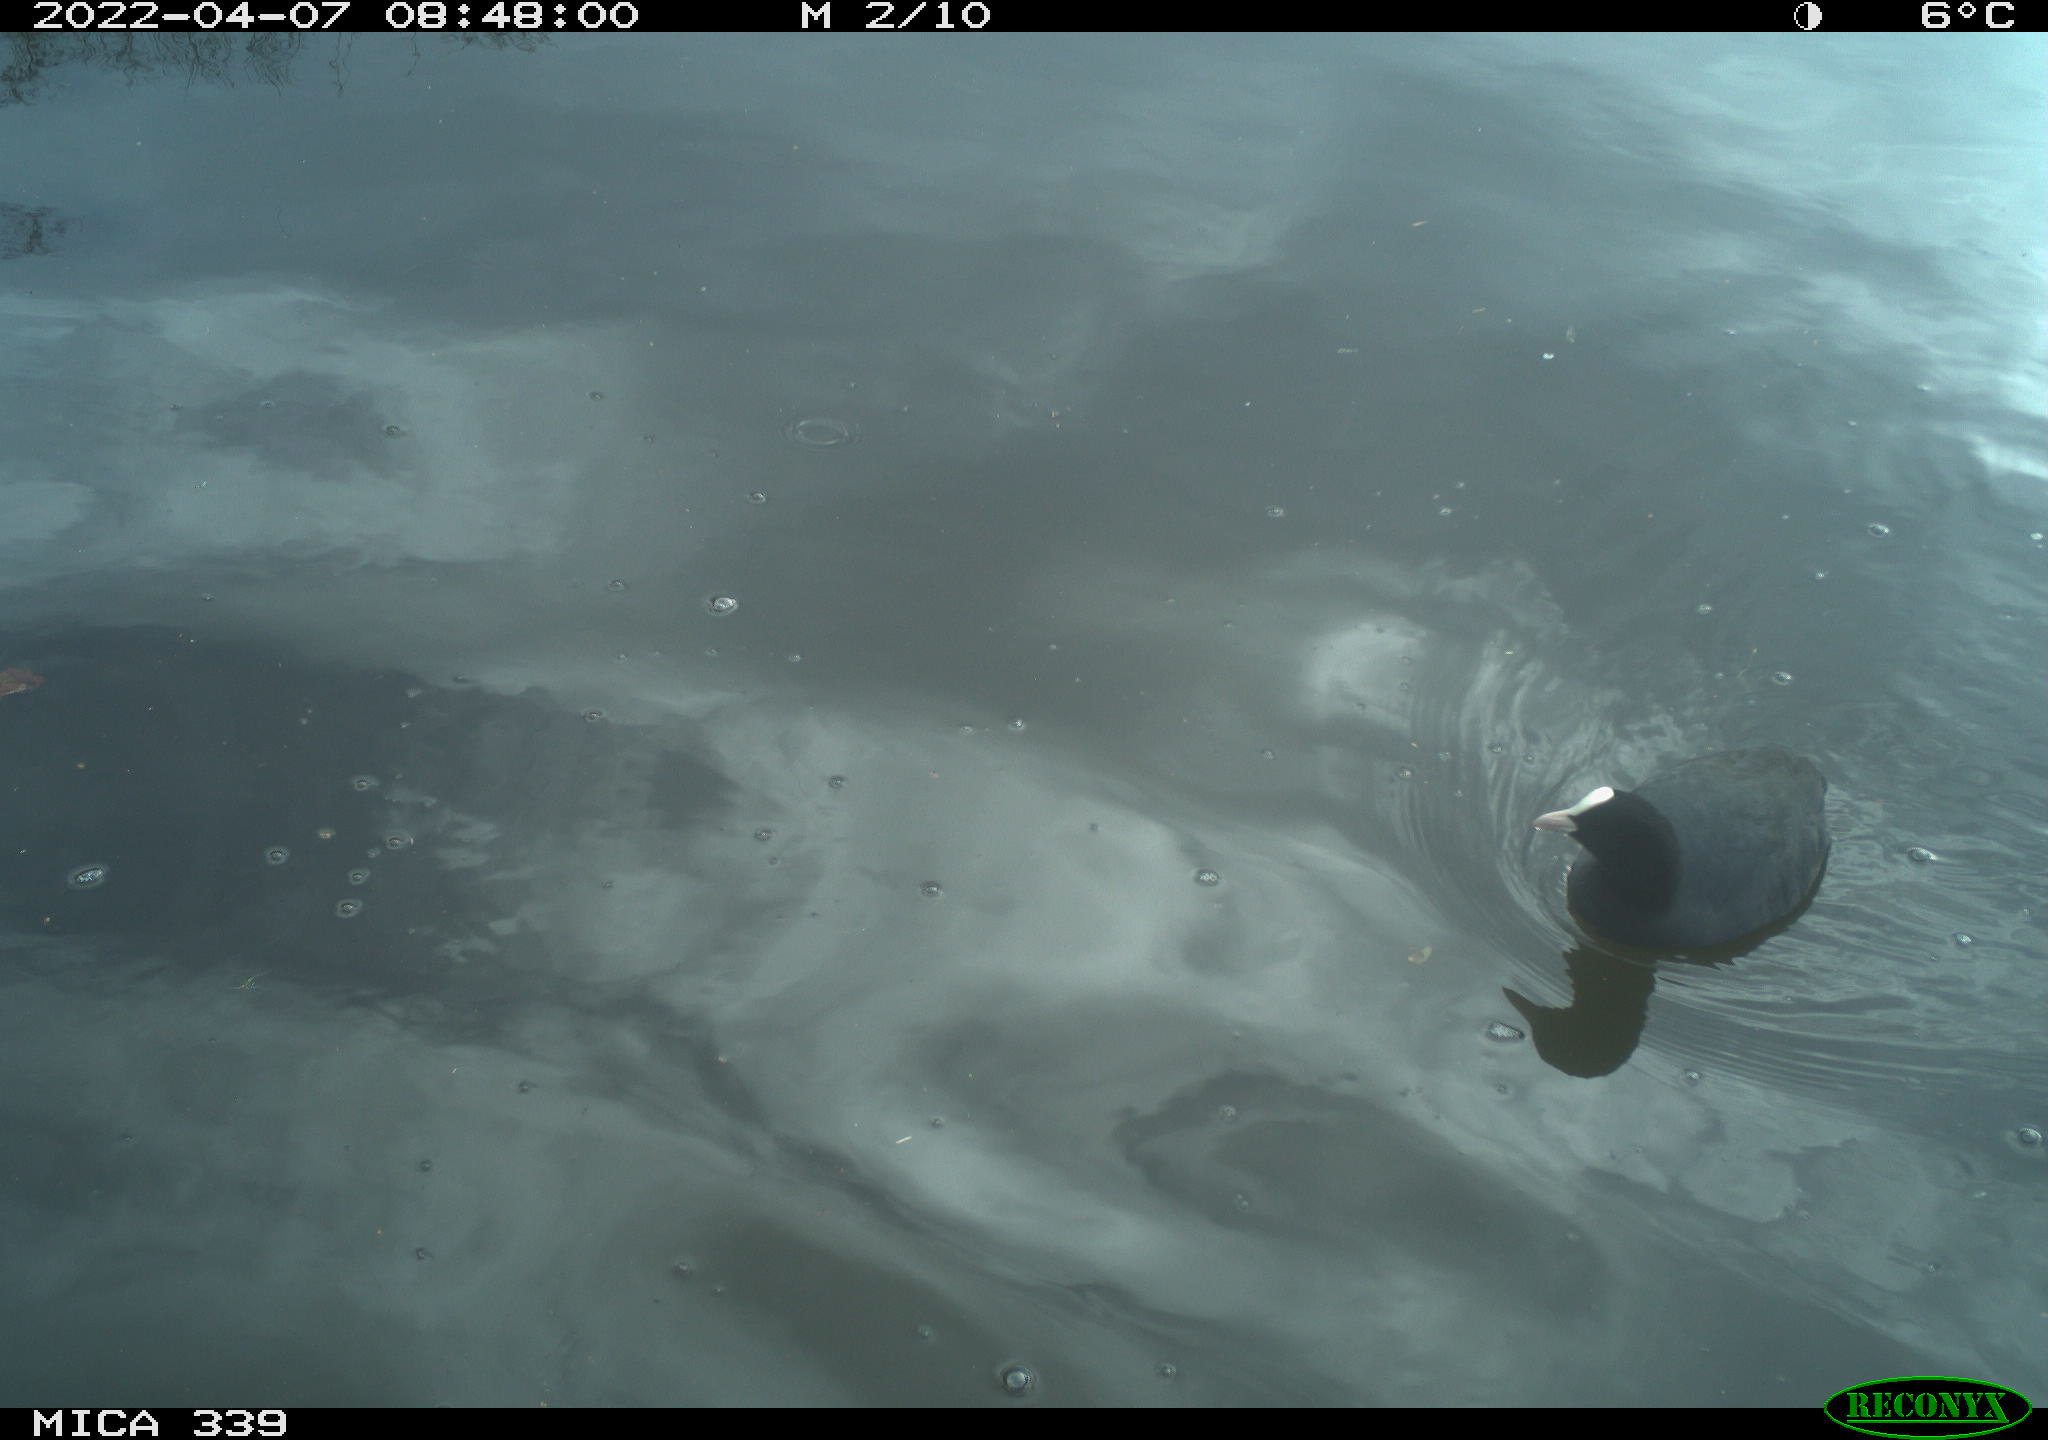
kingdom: Animalia
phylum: Chordata
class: Aves
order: Suliformes
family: Phalacrocoracidae
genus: Phalacrocorax
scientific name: Phalacrocorax carbo
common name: Great cormorant
